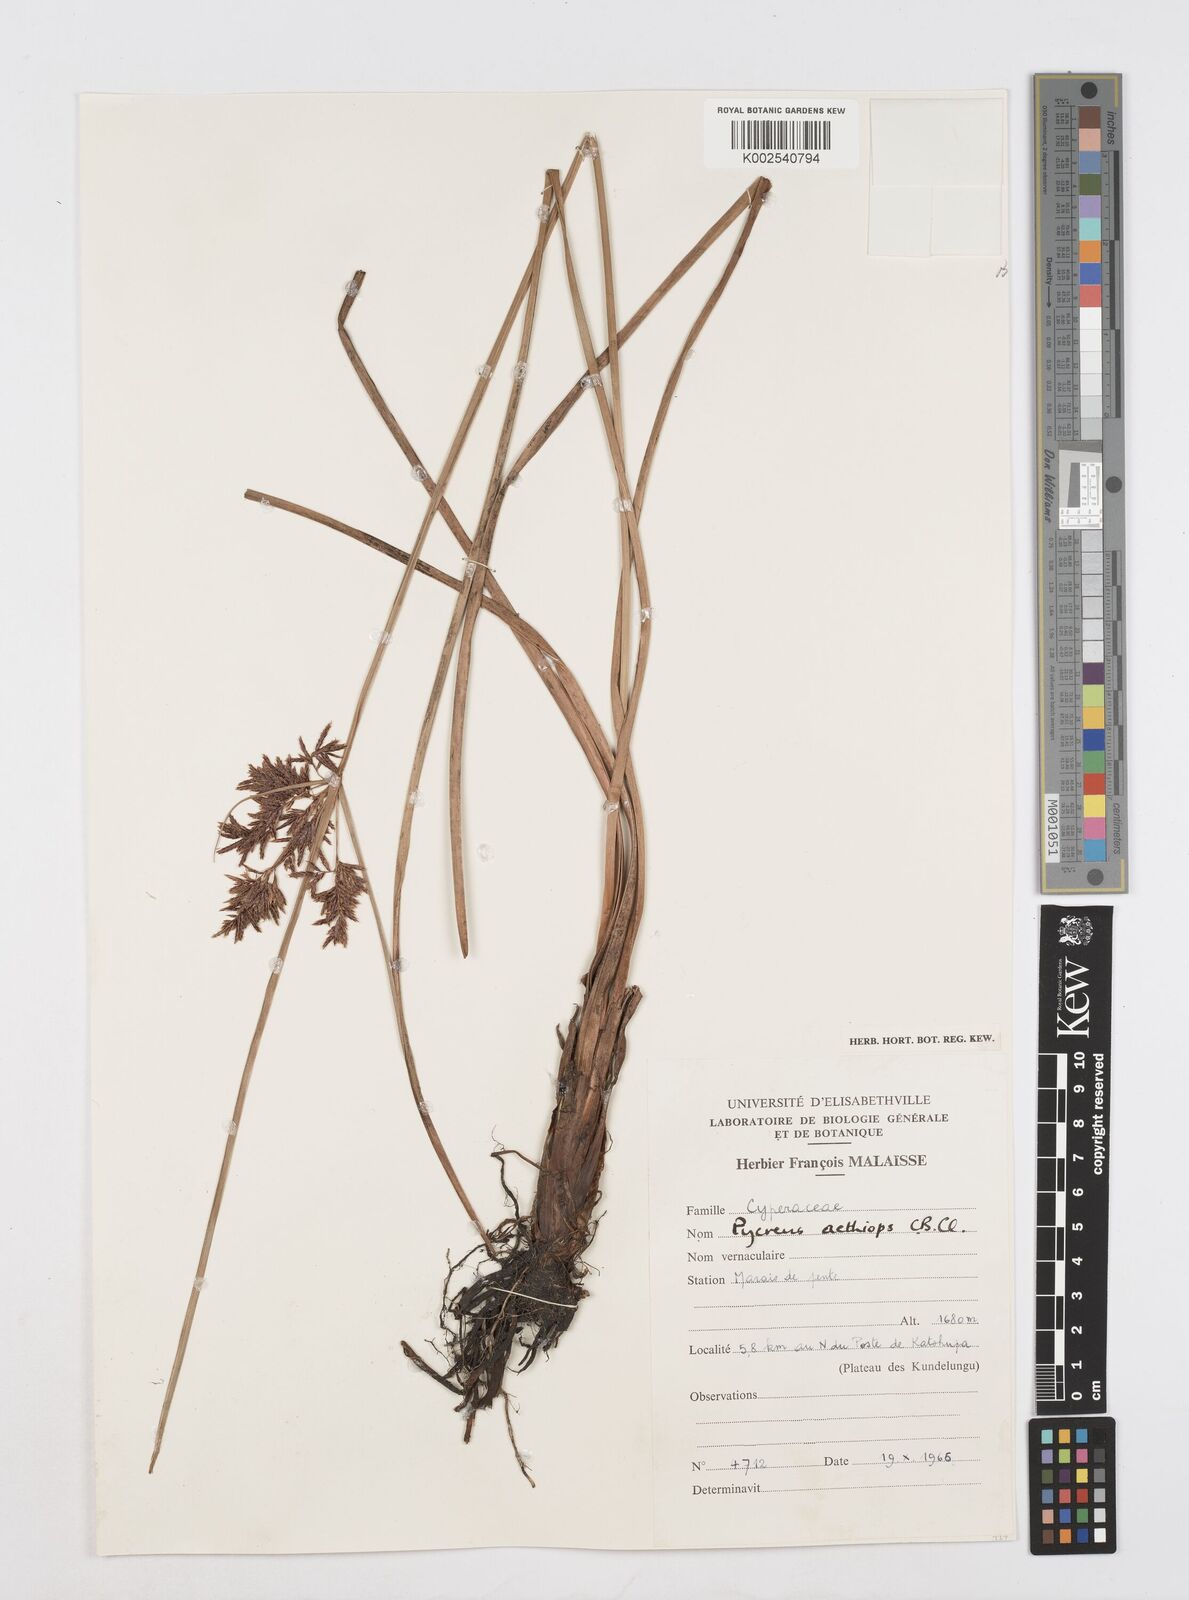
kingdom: Plantae
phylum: Tracheophyta
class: Liliopsida
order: Poales
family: Cyperaceae
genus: Cyperus
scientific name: Cyperus aethiops
